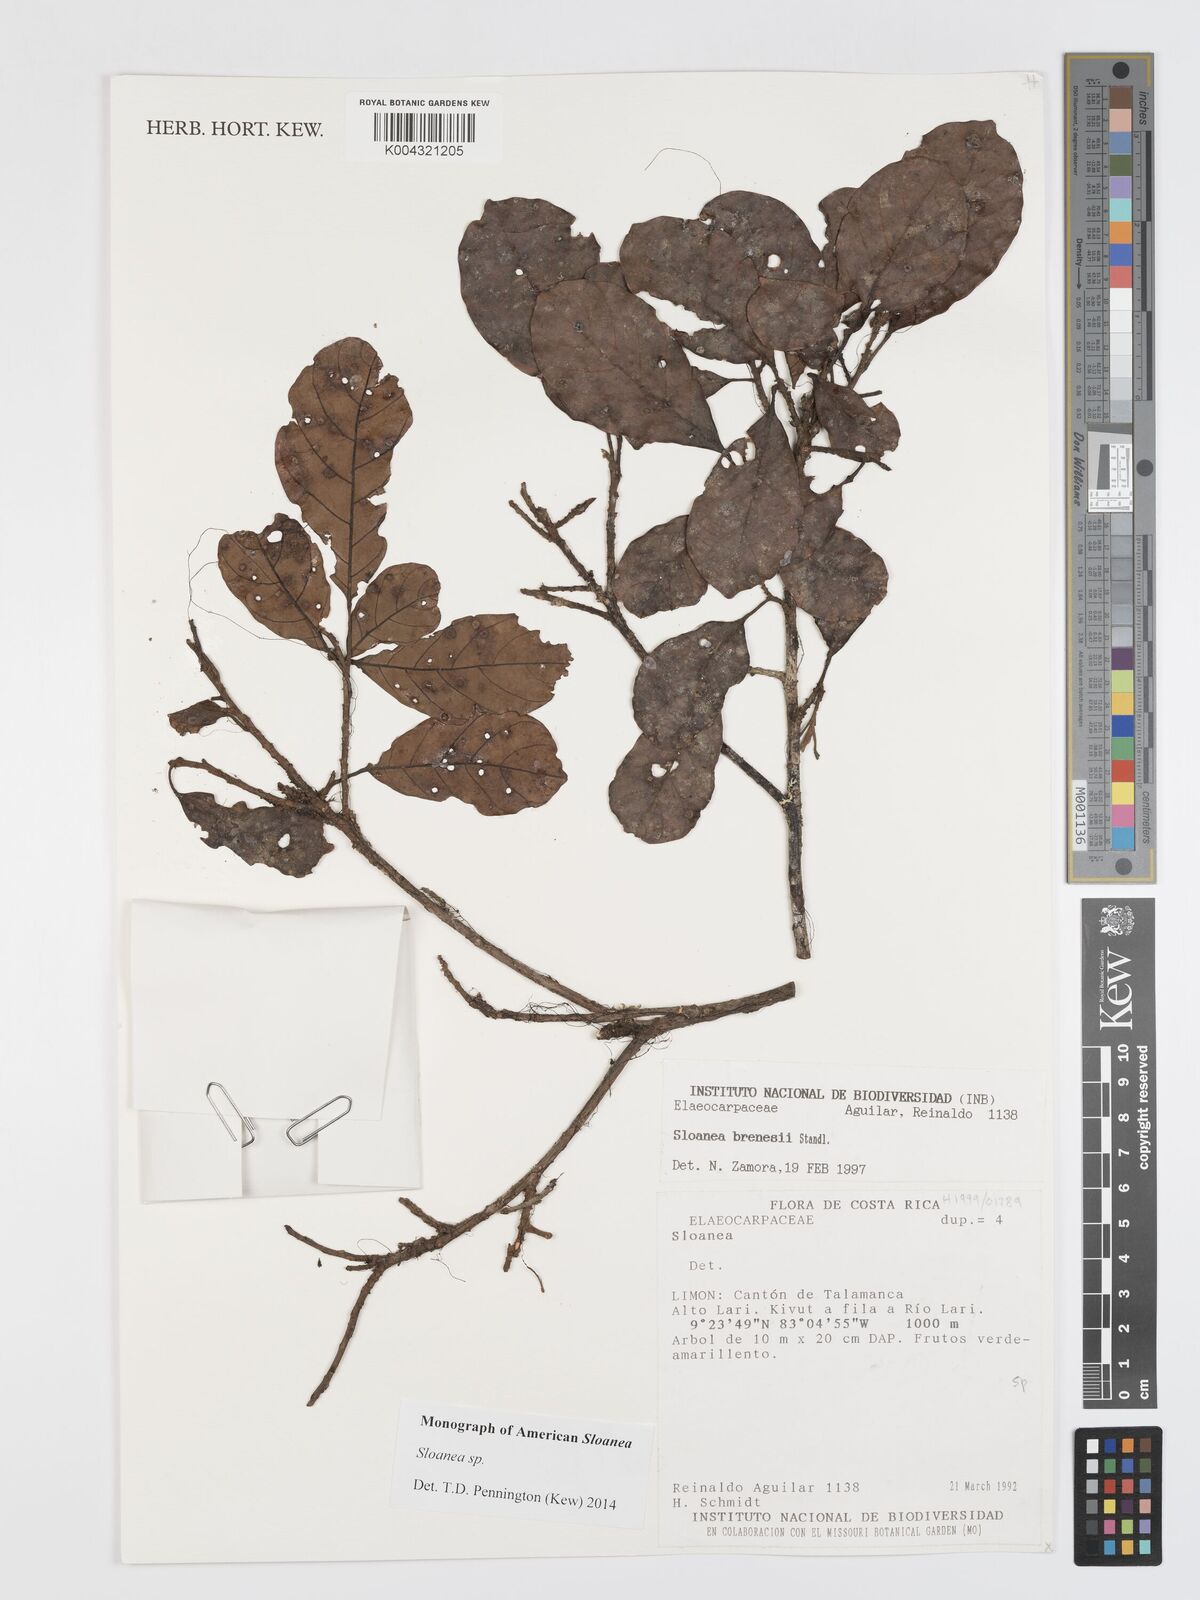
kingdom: Plantae
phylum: Tracheophyta
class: Magnoliopsida
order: Oxalidales
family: Elaeocarpaceae
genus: Sloanea
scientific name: Sloanea
